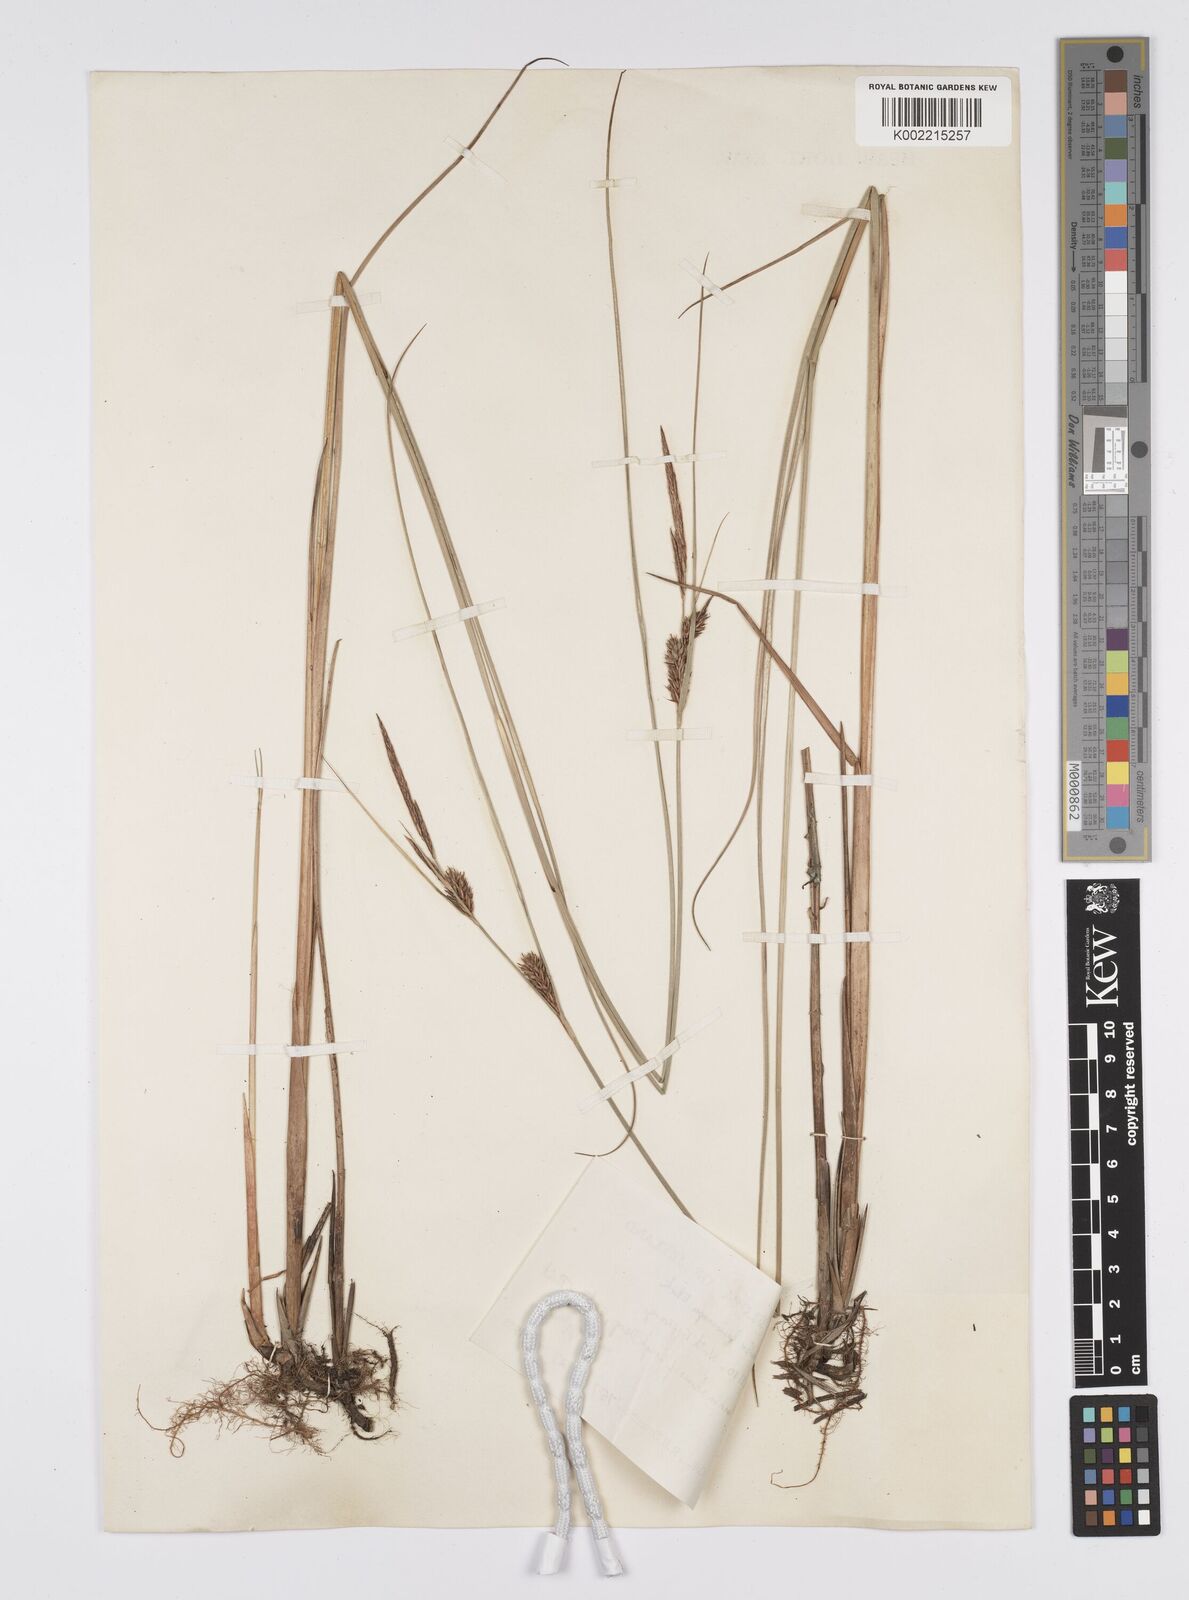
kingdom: Plantae
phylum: Tracheophyta
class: Liliopsida
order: Poales
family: Cyperaceae
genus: Carex
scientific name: Carex lasiocarpa
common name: Slender sedge
